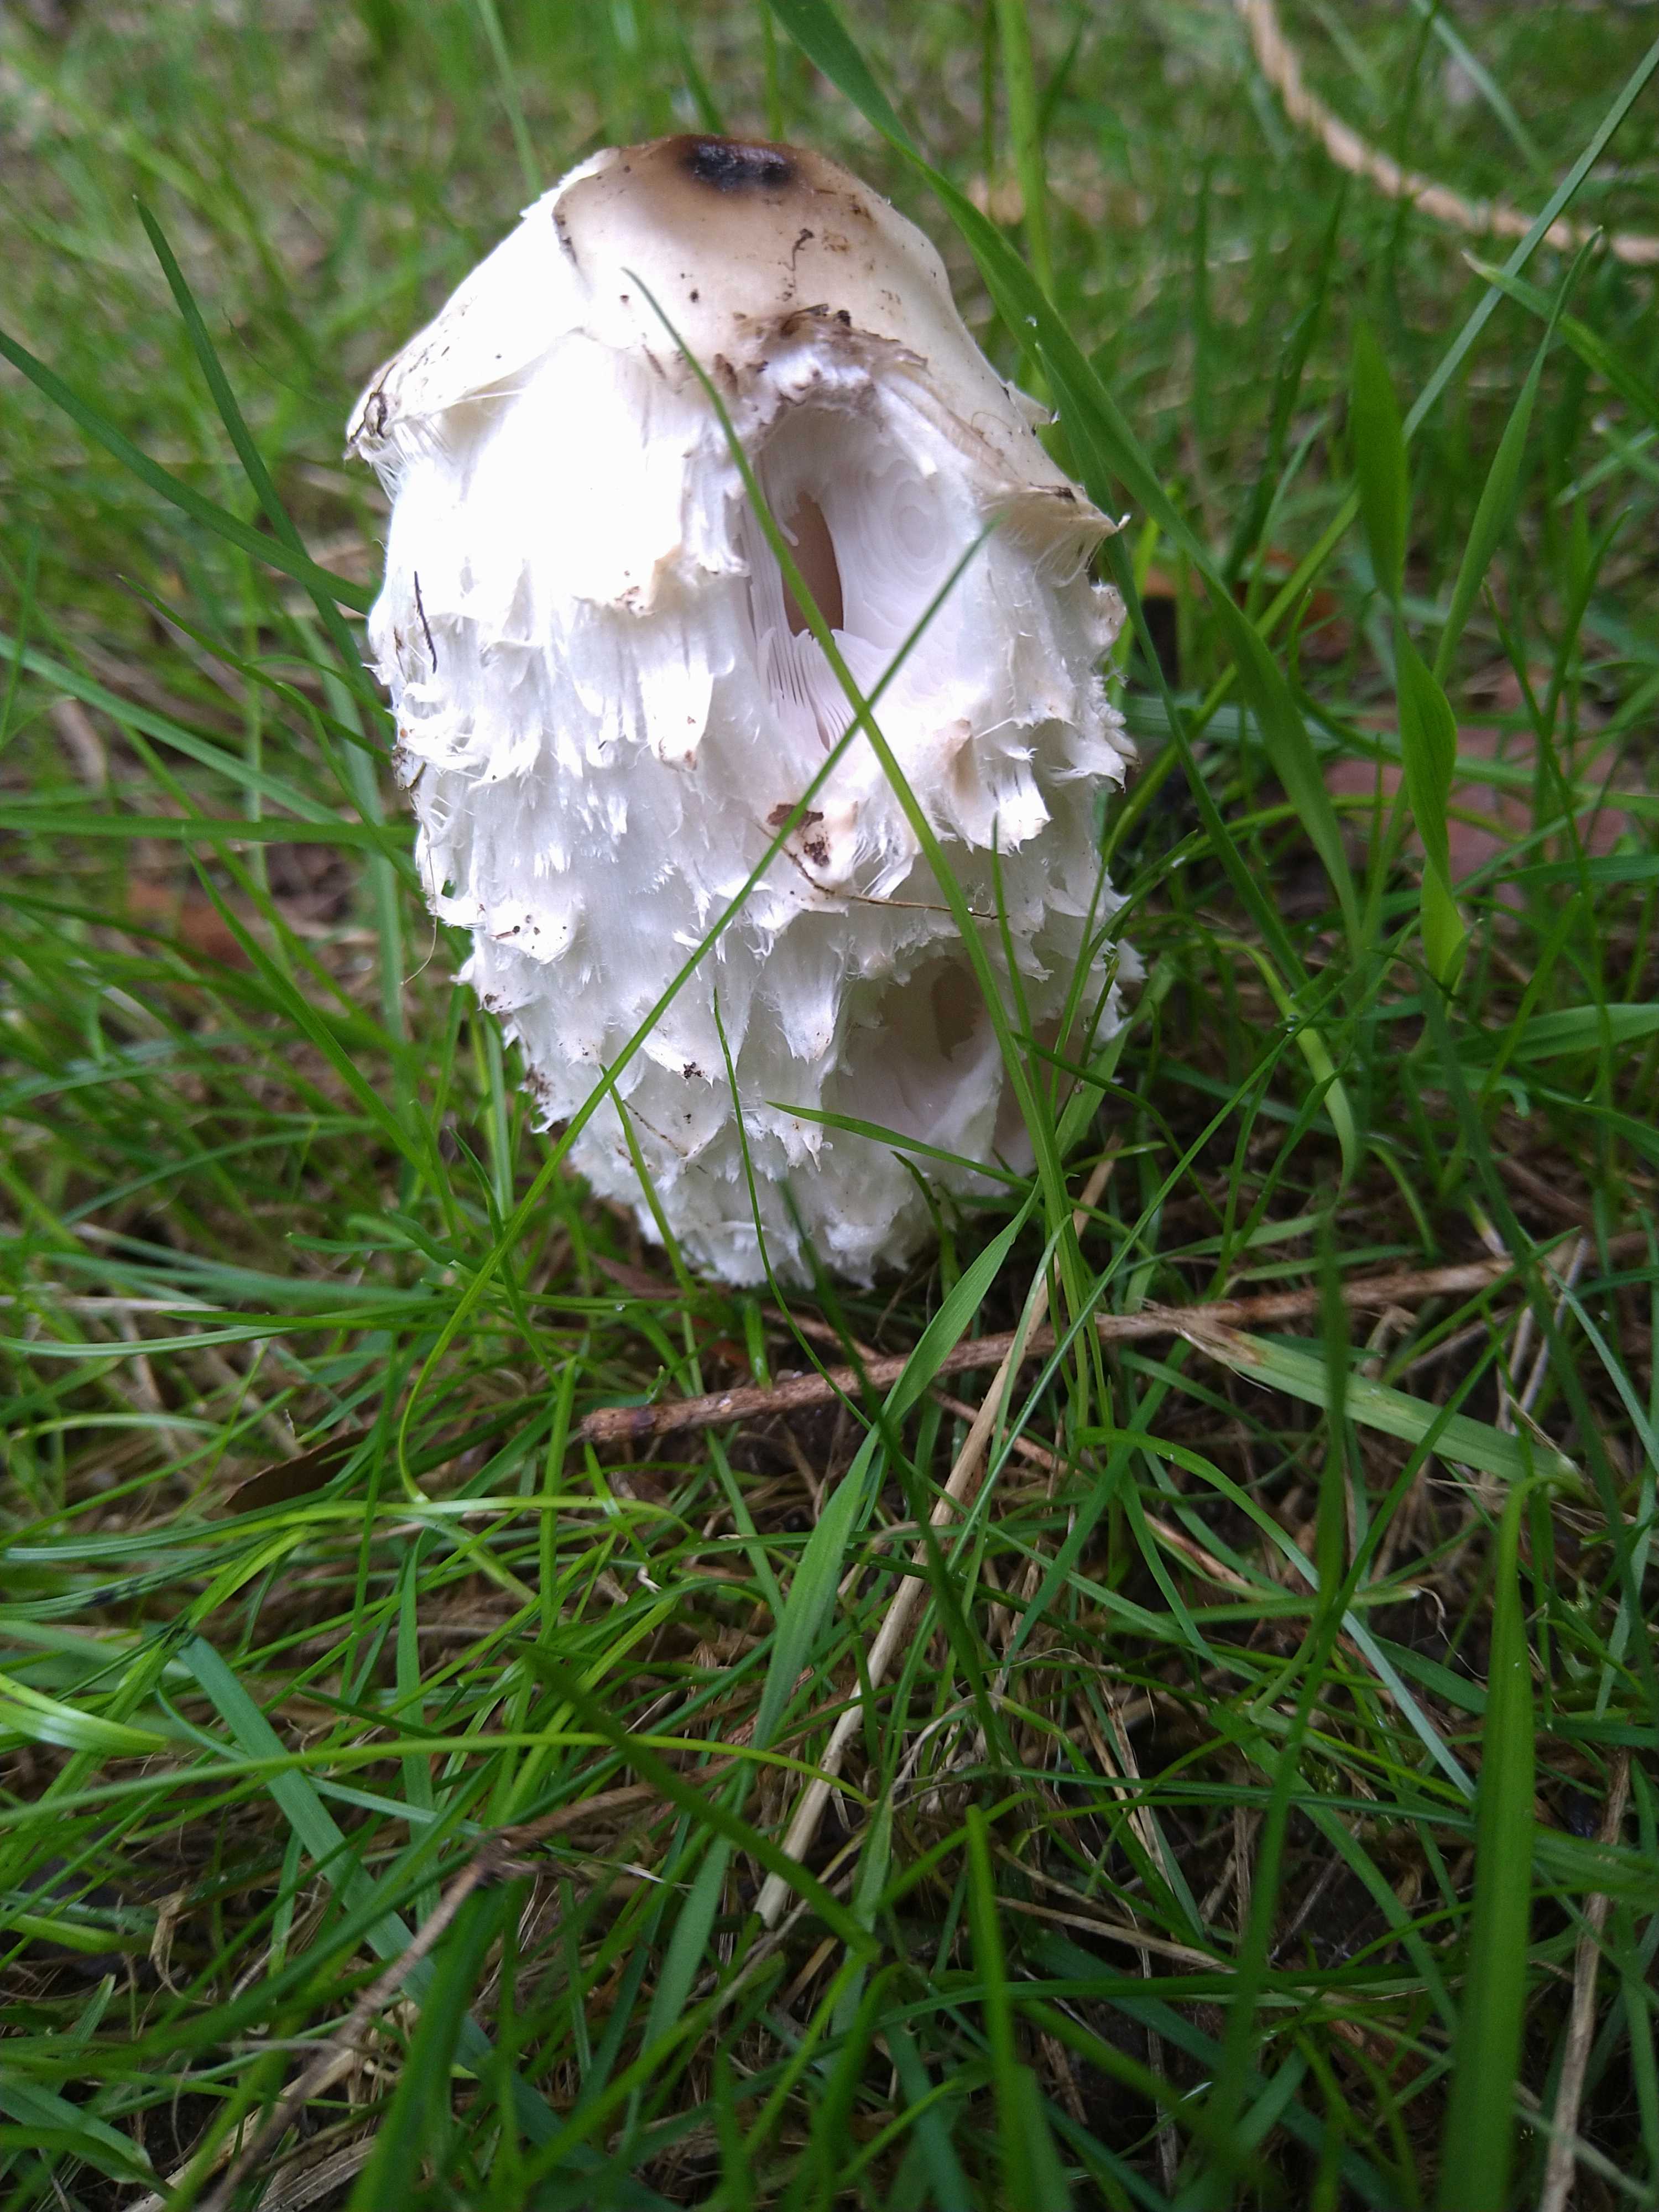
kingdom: Fungi
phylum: Basidiomycota
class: Agaricomycetes
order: Agaricales
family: Agaricaceae
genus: Coprinus
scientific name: Coprinus comatus
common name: stor parykhat
